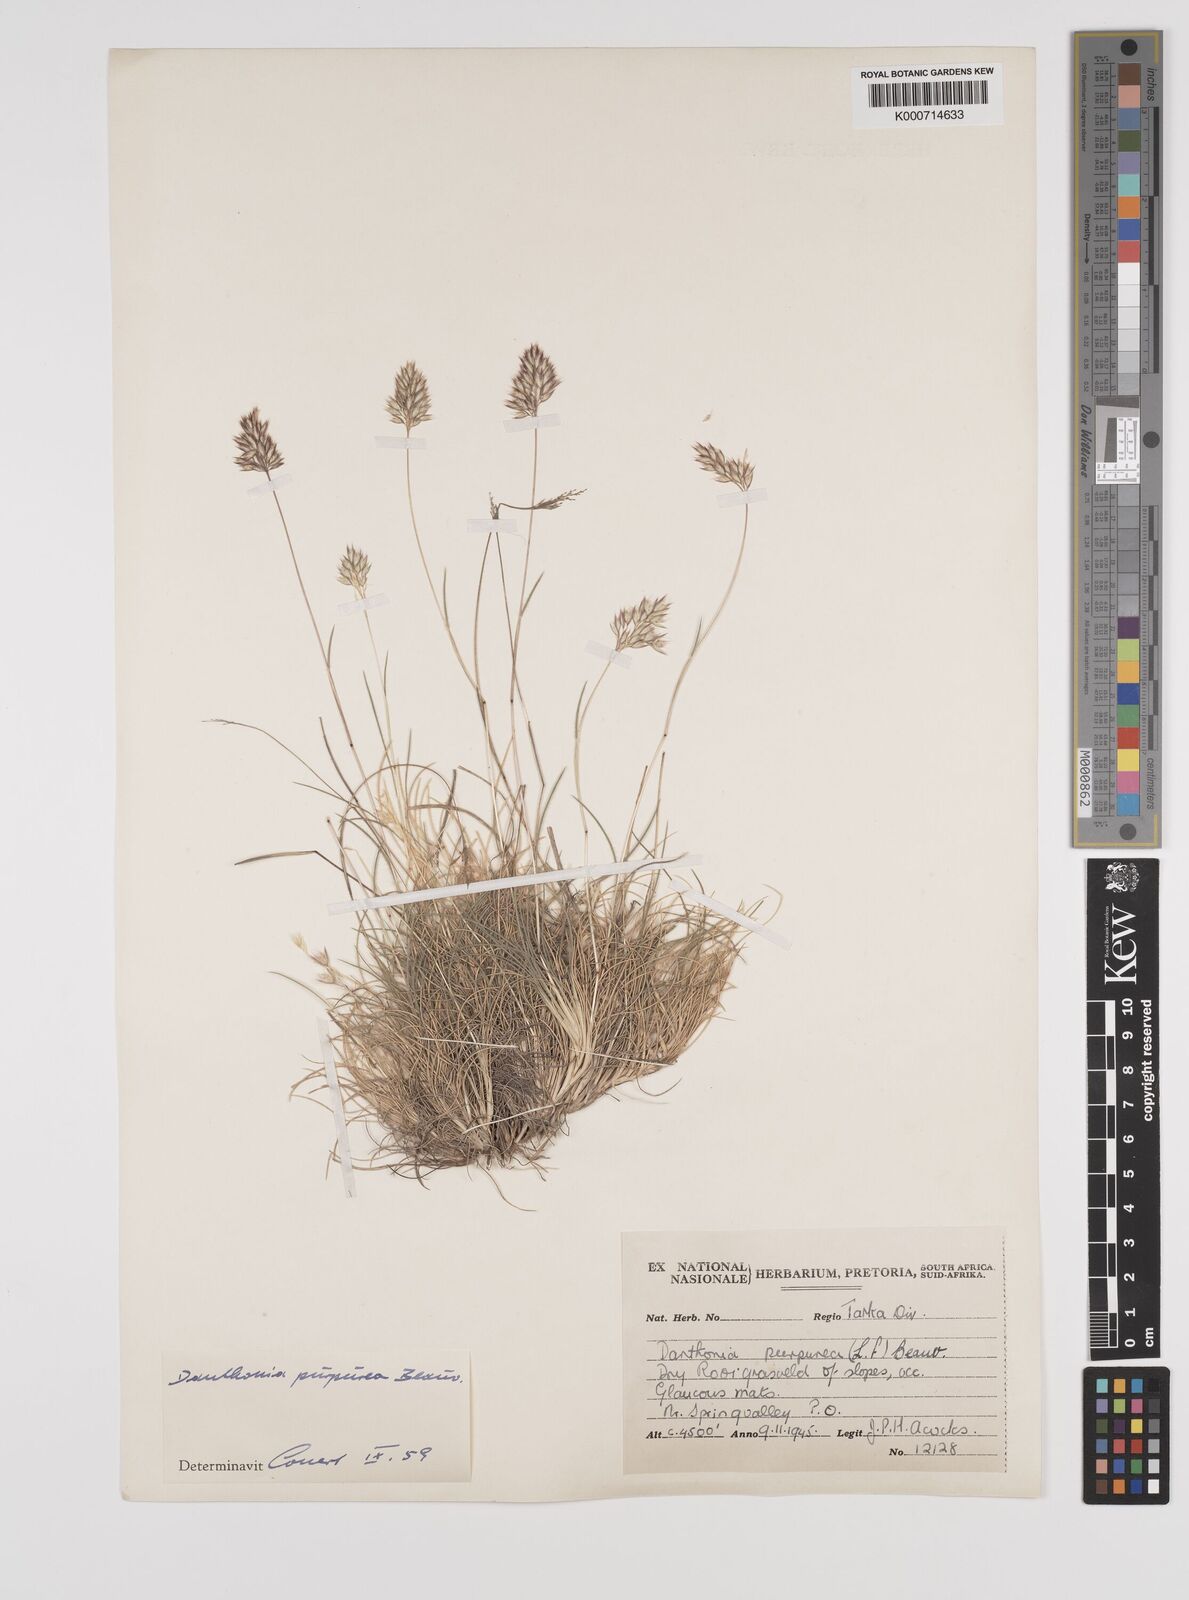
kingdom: Plantae
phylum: Tracheophyta
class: Liliopsida
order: Poales
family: Poaceae
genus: Rytidosperma
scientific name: Rytidosperma
